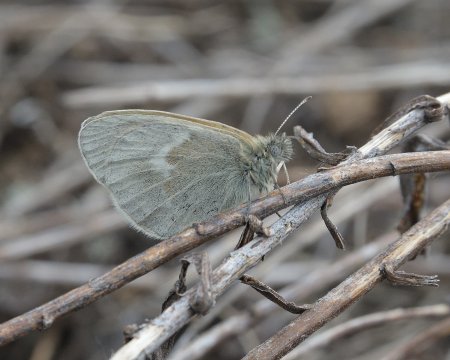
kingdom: Animalia
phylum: Arthropoda
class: Insecta
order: Lepidoptera
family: Nymphalidae
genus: Coenonympha
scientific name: Coenonympha tullia
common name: Large Heath
